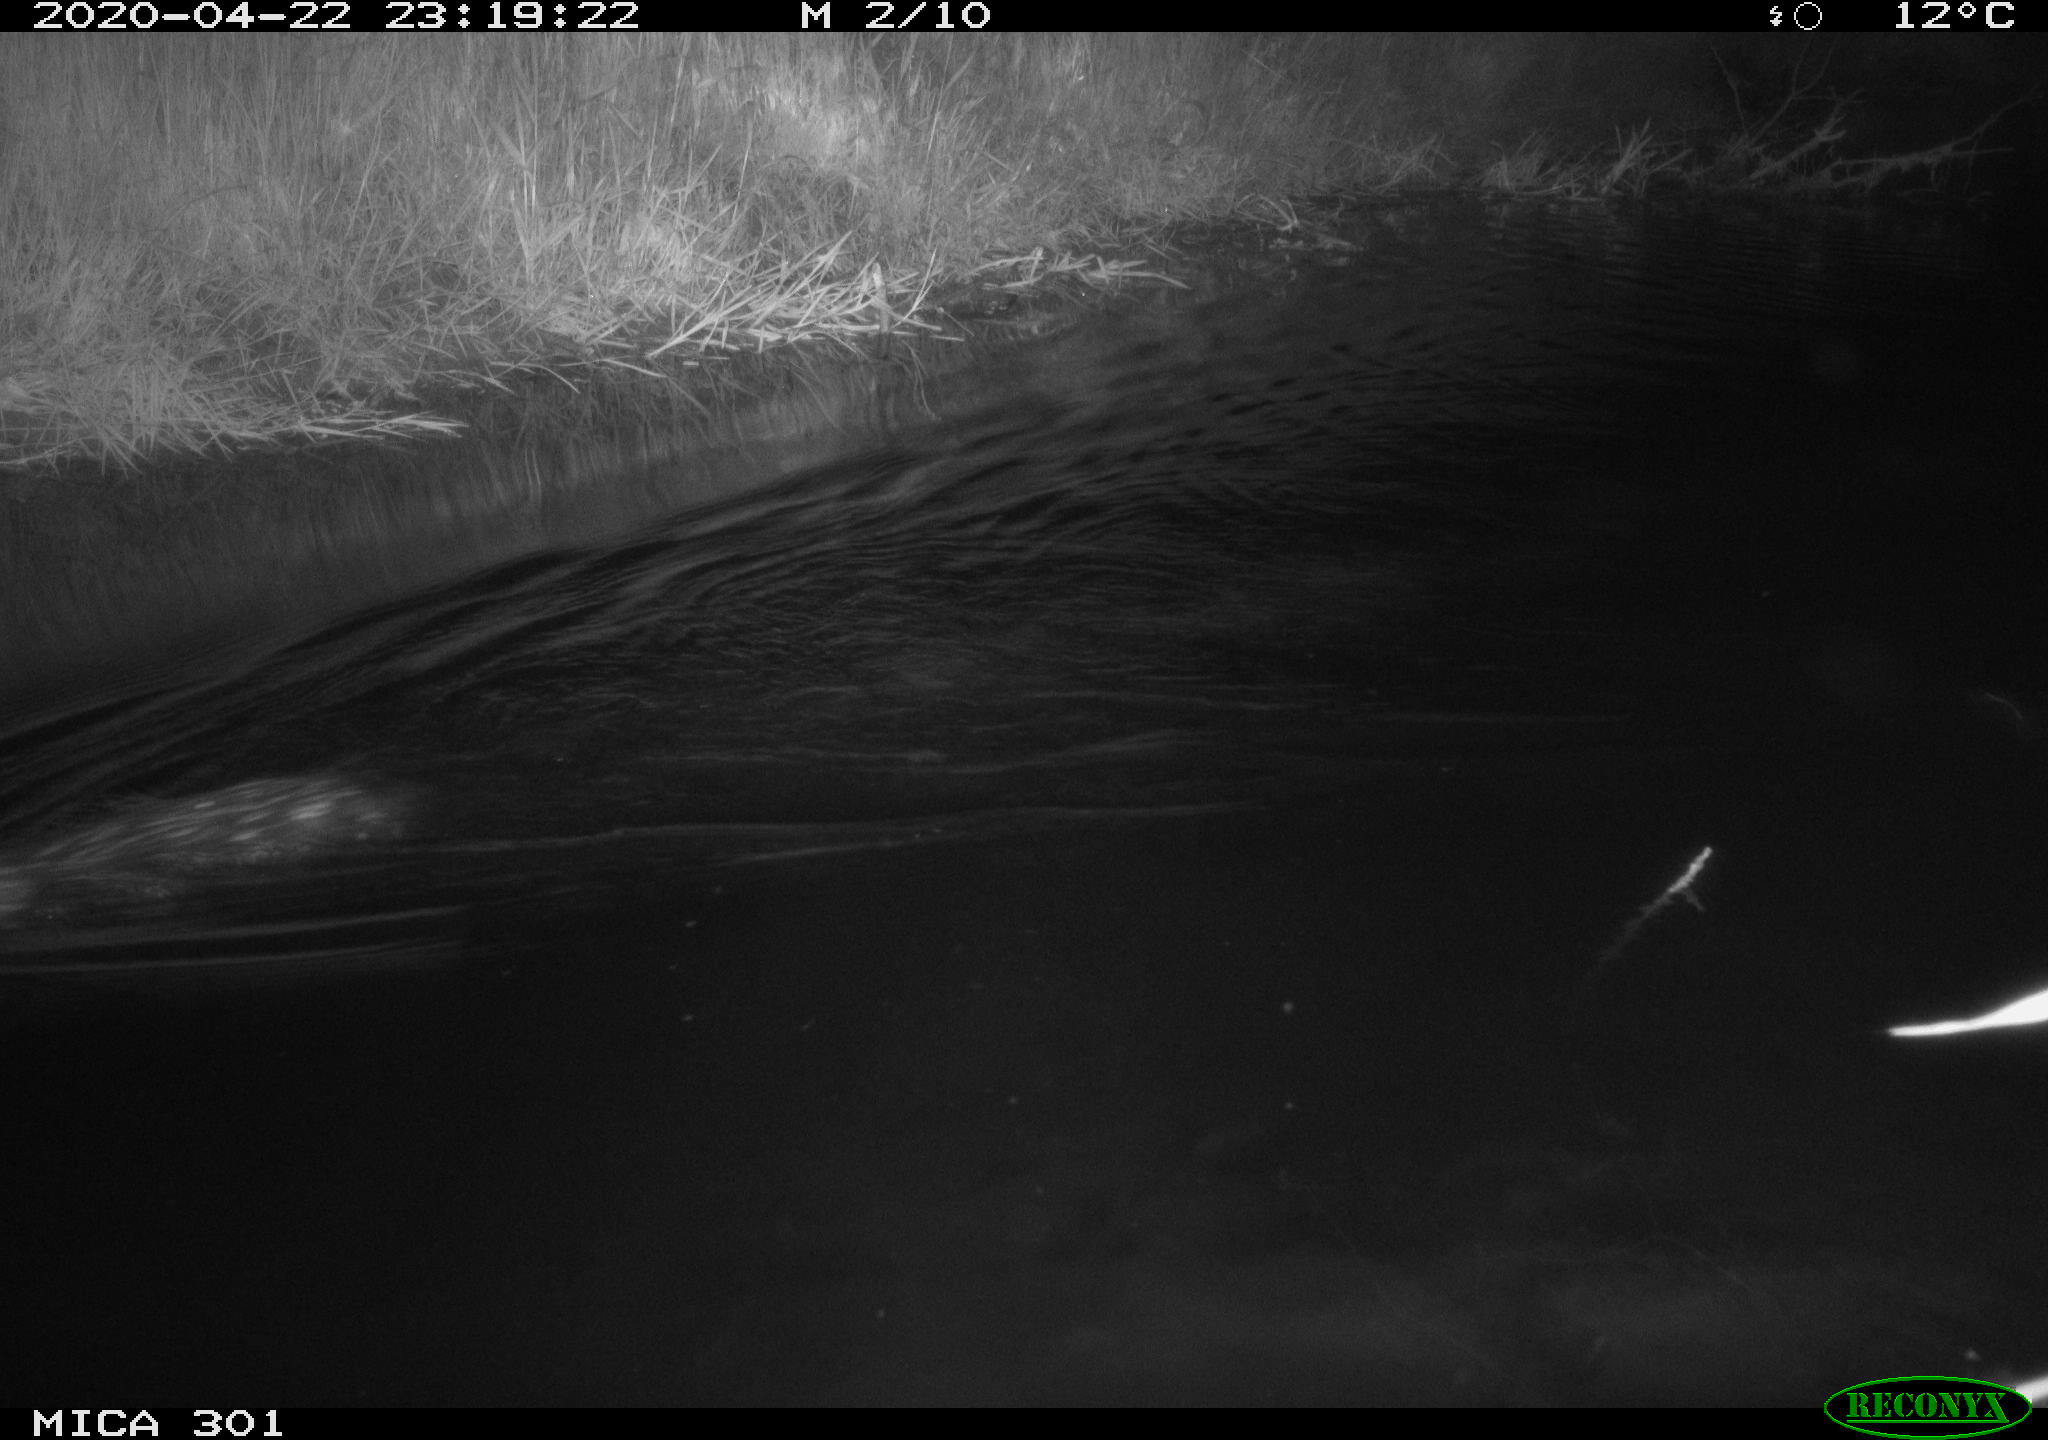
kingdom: Animalia
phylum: Chordata
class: Mammalia
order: Rodentia
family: Castoridae
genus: Castor
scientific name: Castor fiber
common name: Eurasian beaver
